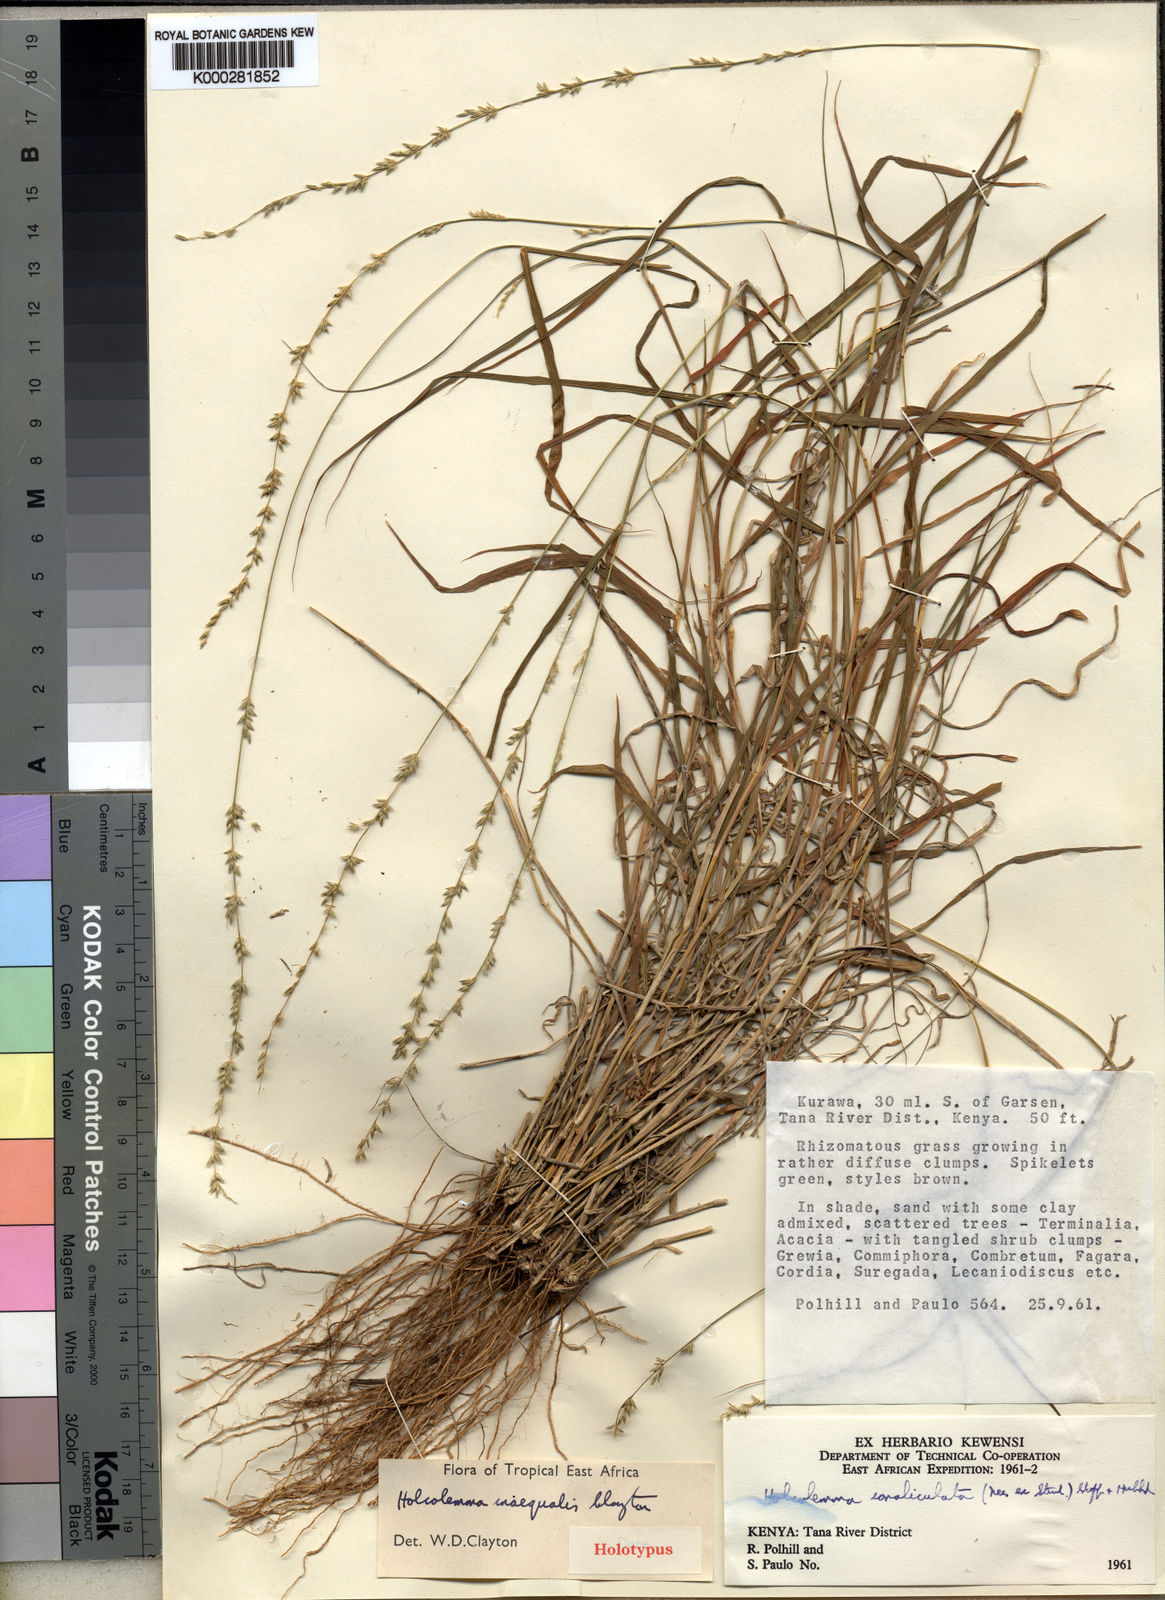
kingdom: Plantae
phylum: Tracheophyta
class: Liliopsida
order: Poales
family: Poaceae
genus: Holcolemma
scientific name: Holcolemma
